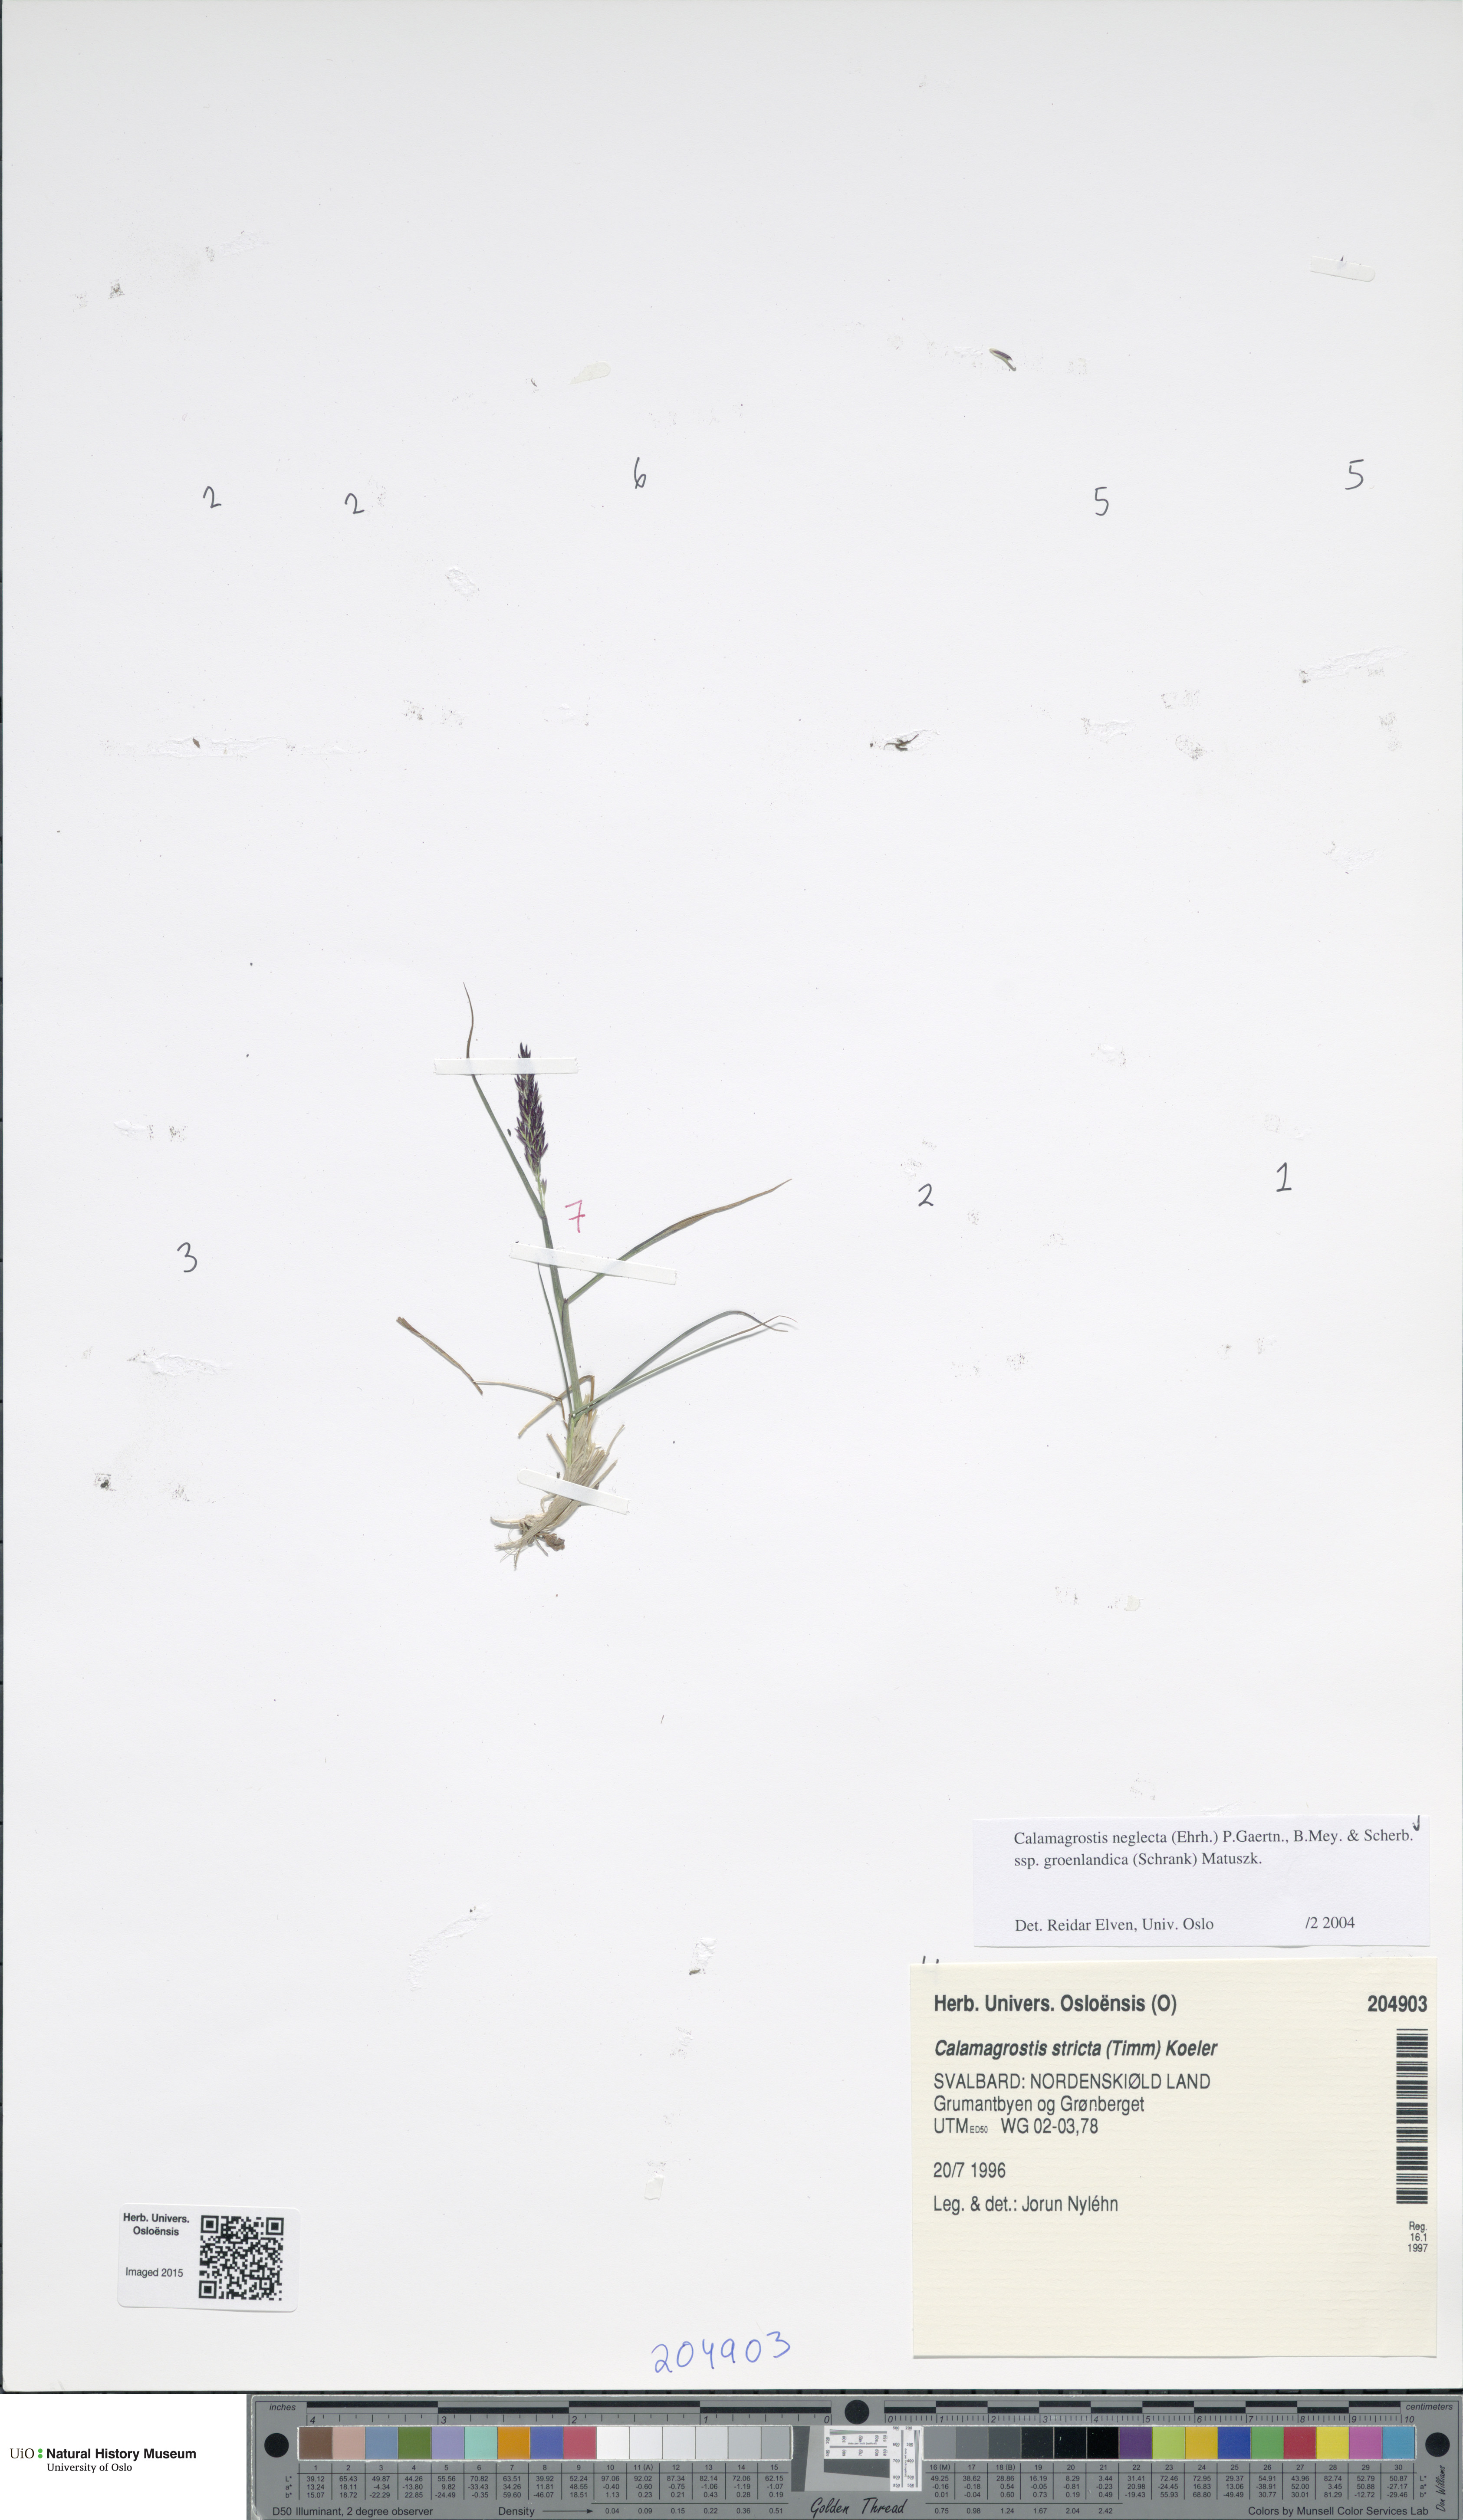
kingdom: Plantae
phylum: Tracheophyta
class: Liliopsida
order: Poales
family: Poaceae
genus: Calamagrostis
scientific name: Calamagrostis stricta
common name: Narrow small-reed
